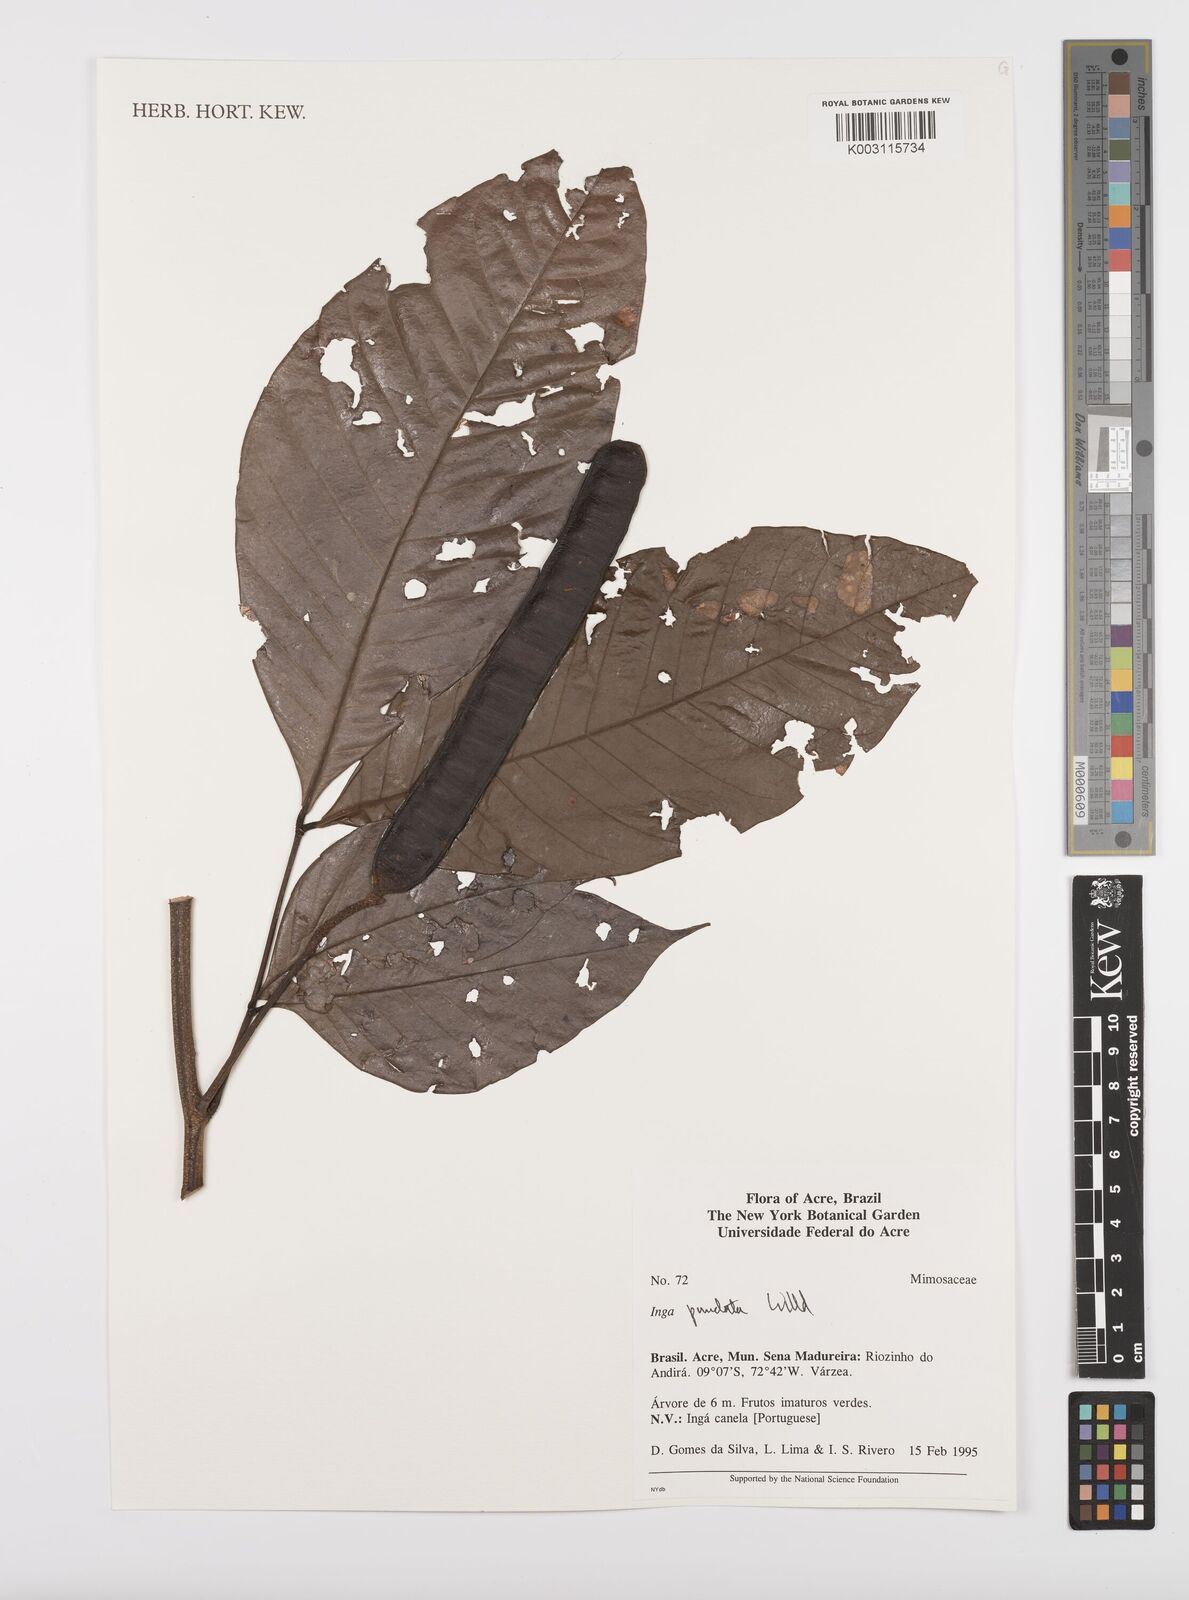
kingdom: Plantae
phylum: Tracheophyta
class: Magnoliopsida
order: Fabales
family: Fabaceae
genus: Inga
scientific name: Inga punctata
